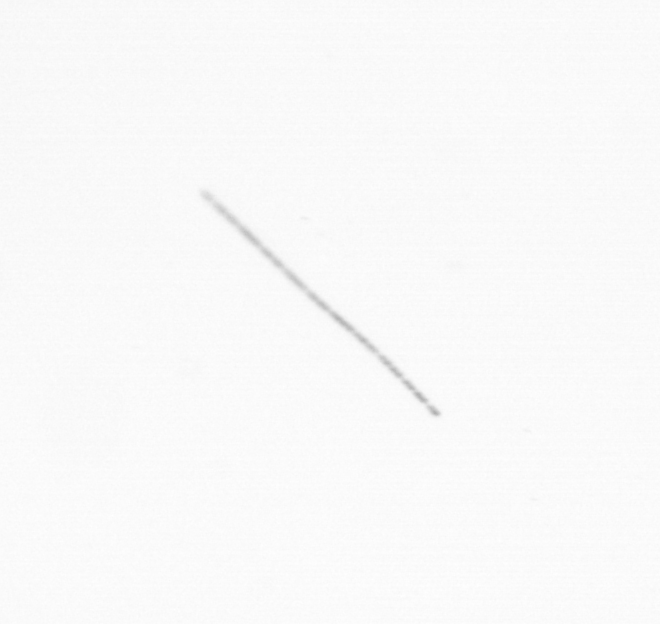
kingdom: Chromista
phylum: Ochrophyta
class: Bacillariophyceae
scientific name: Bacillariophyceae
